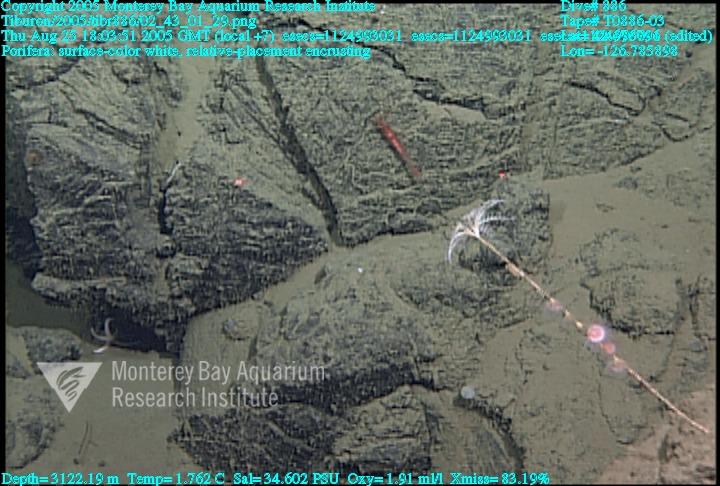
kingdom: Animalia
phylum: Porifera
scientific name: Porifera
